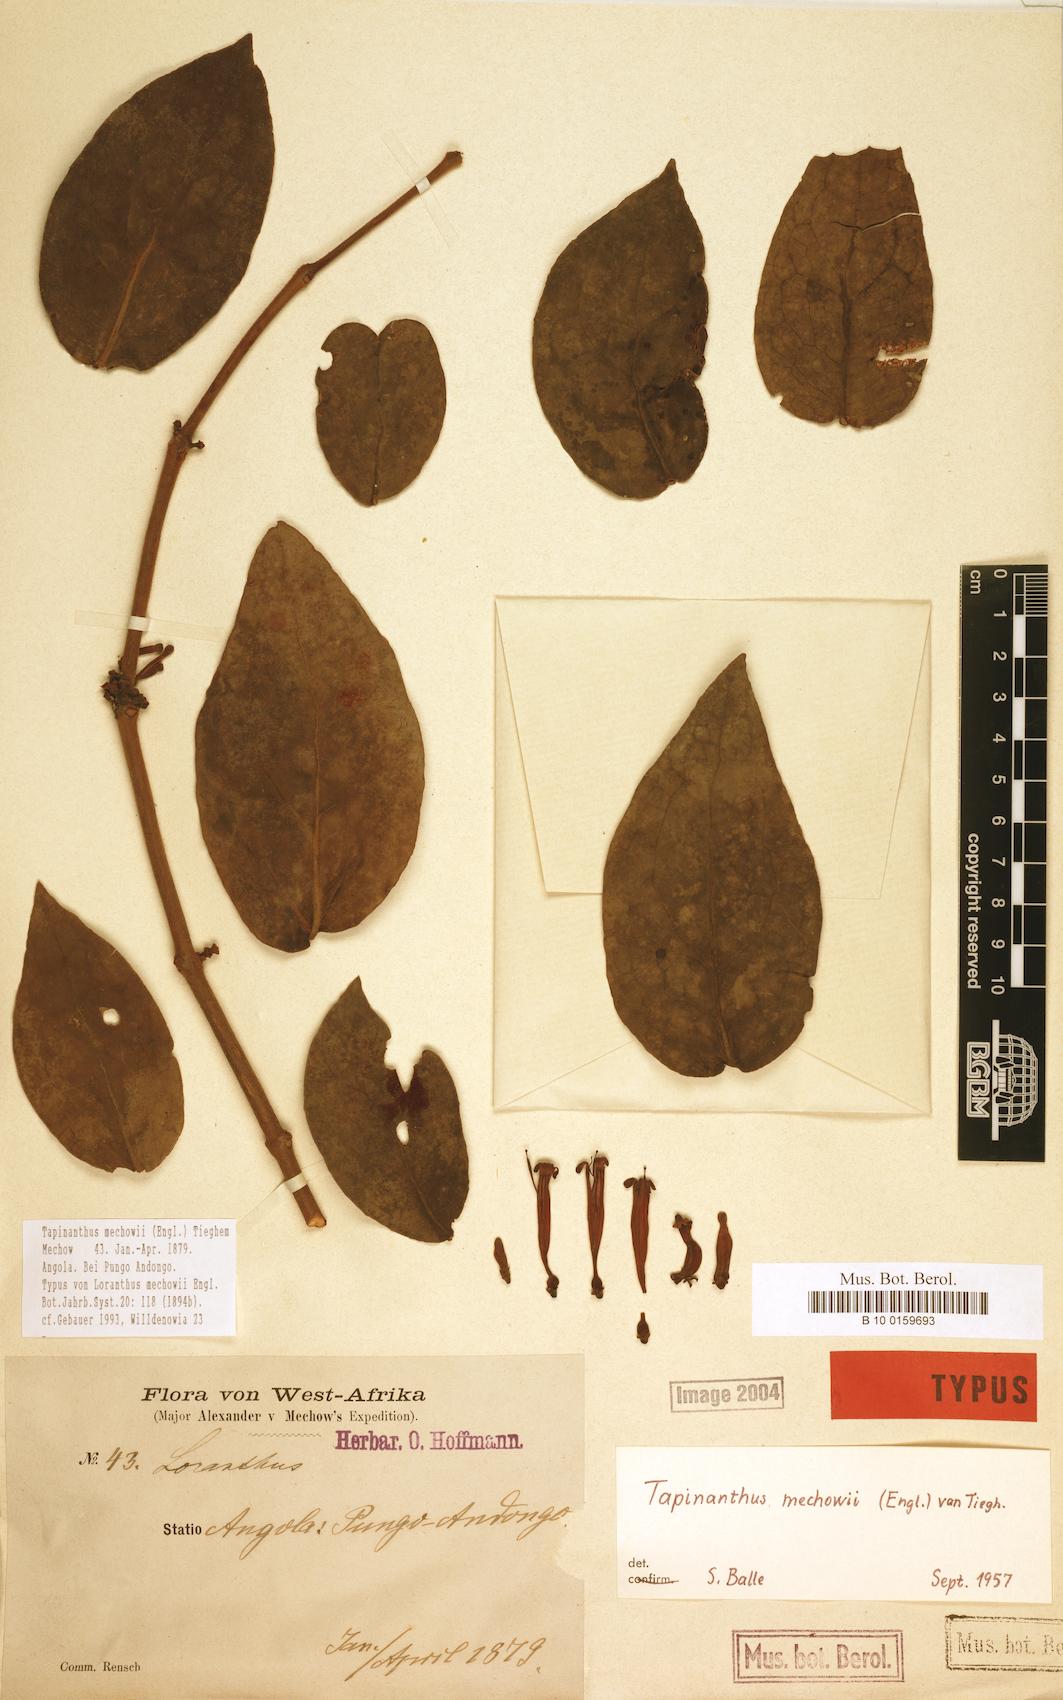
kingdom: Plantae
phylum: Tracheophyta
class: Magnoliopsida
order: Santalales
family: Loranthaceae
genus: Tapinanthus
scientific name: Tapinanthus mechowii
